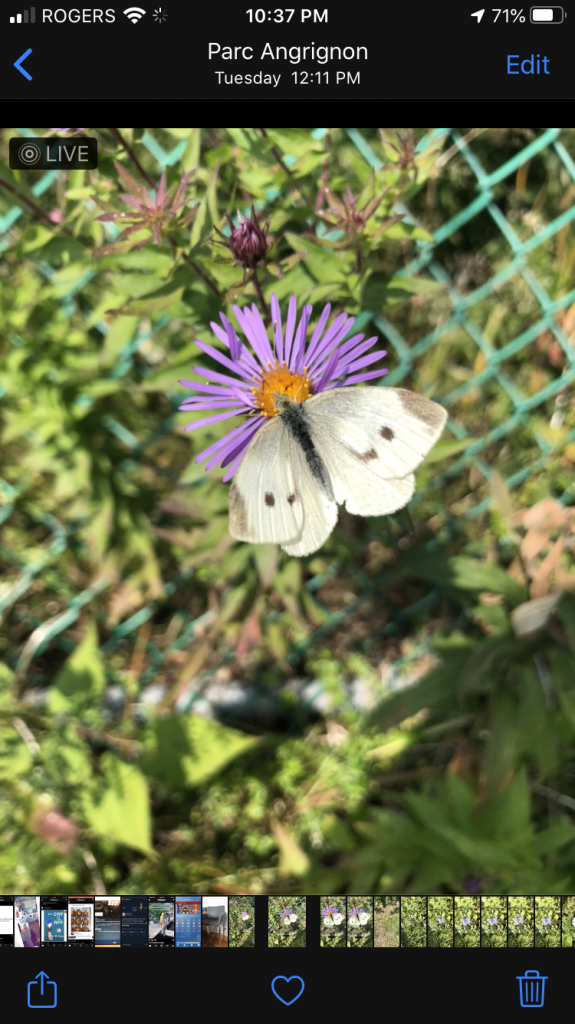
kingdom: Animalia
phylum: Arthropoda
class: Insecta
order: Lepidoptera
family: Pieridae
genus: Pieris
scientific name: Pieris rapae
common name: Cabbage White
